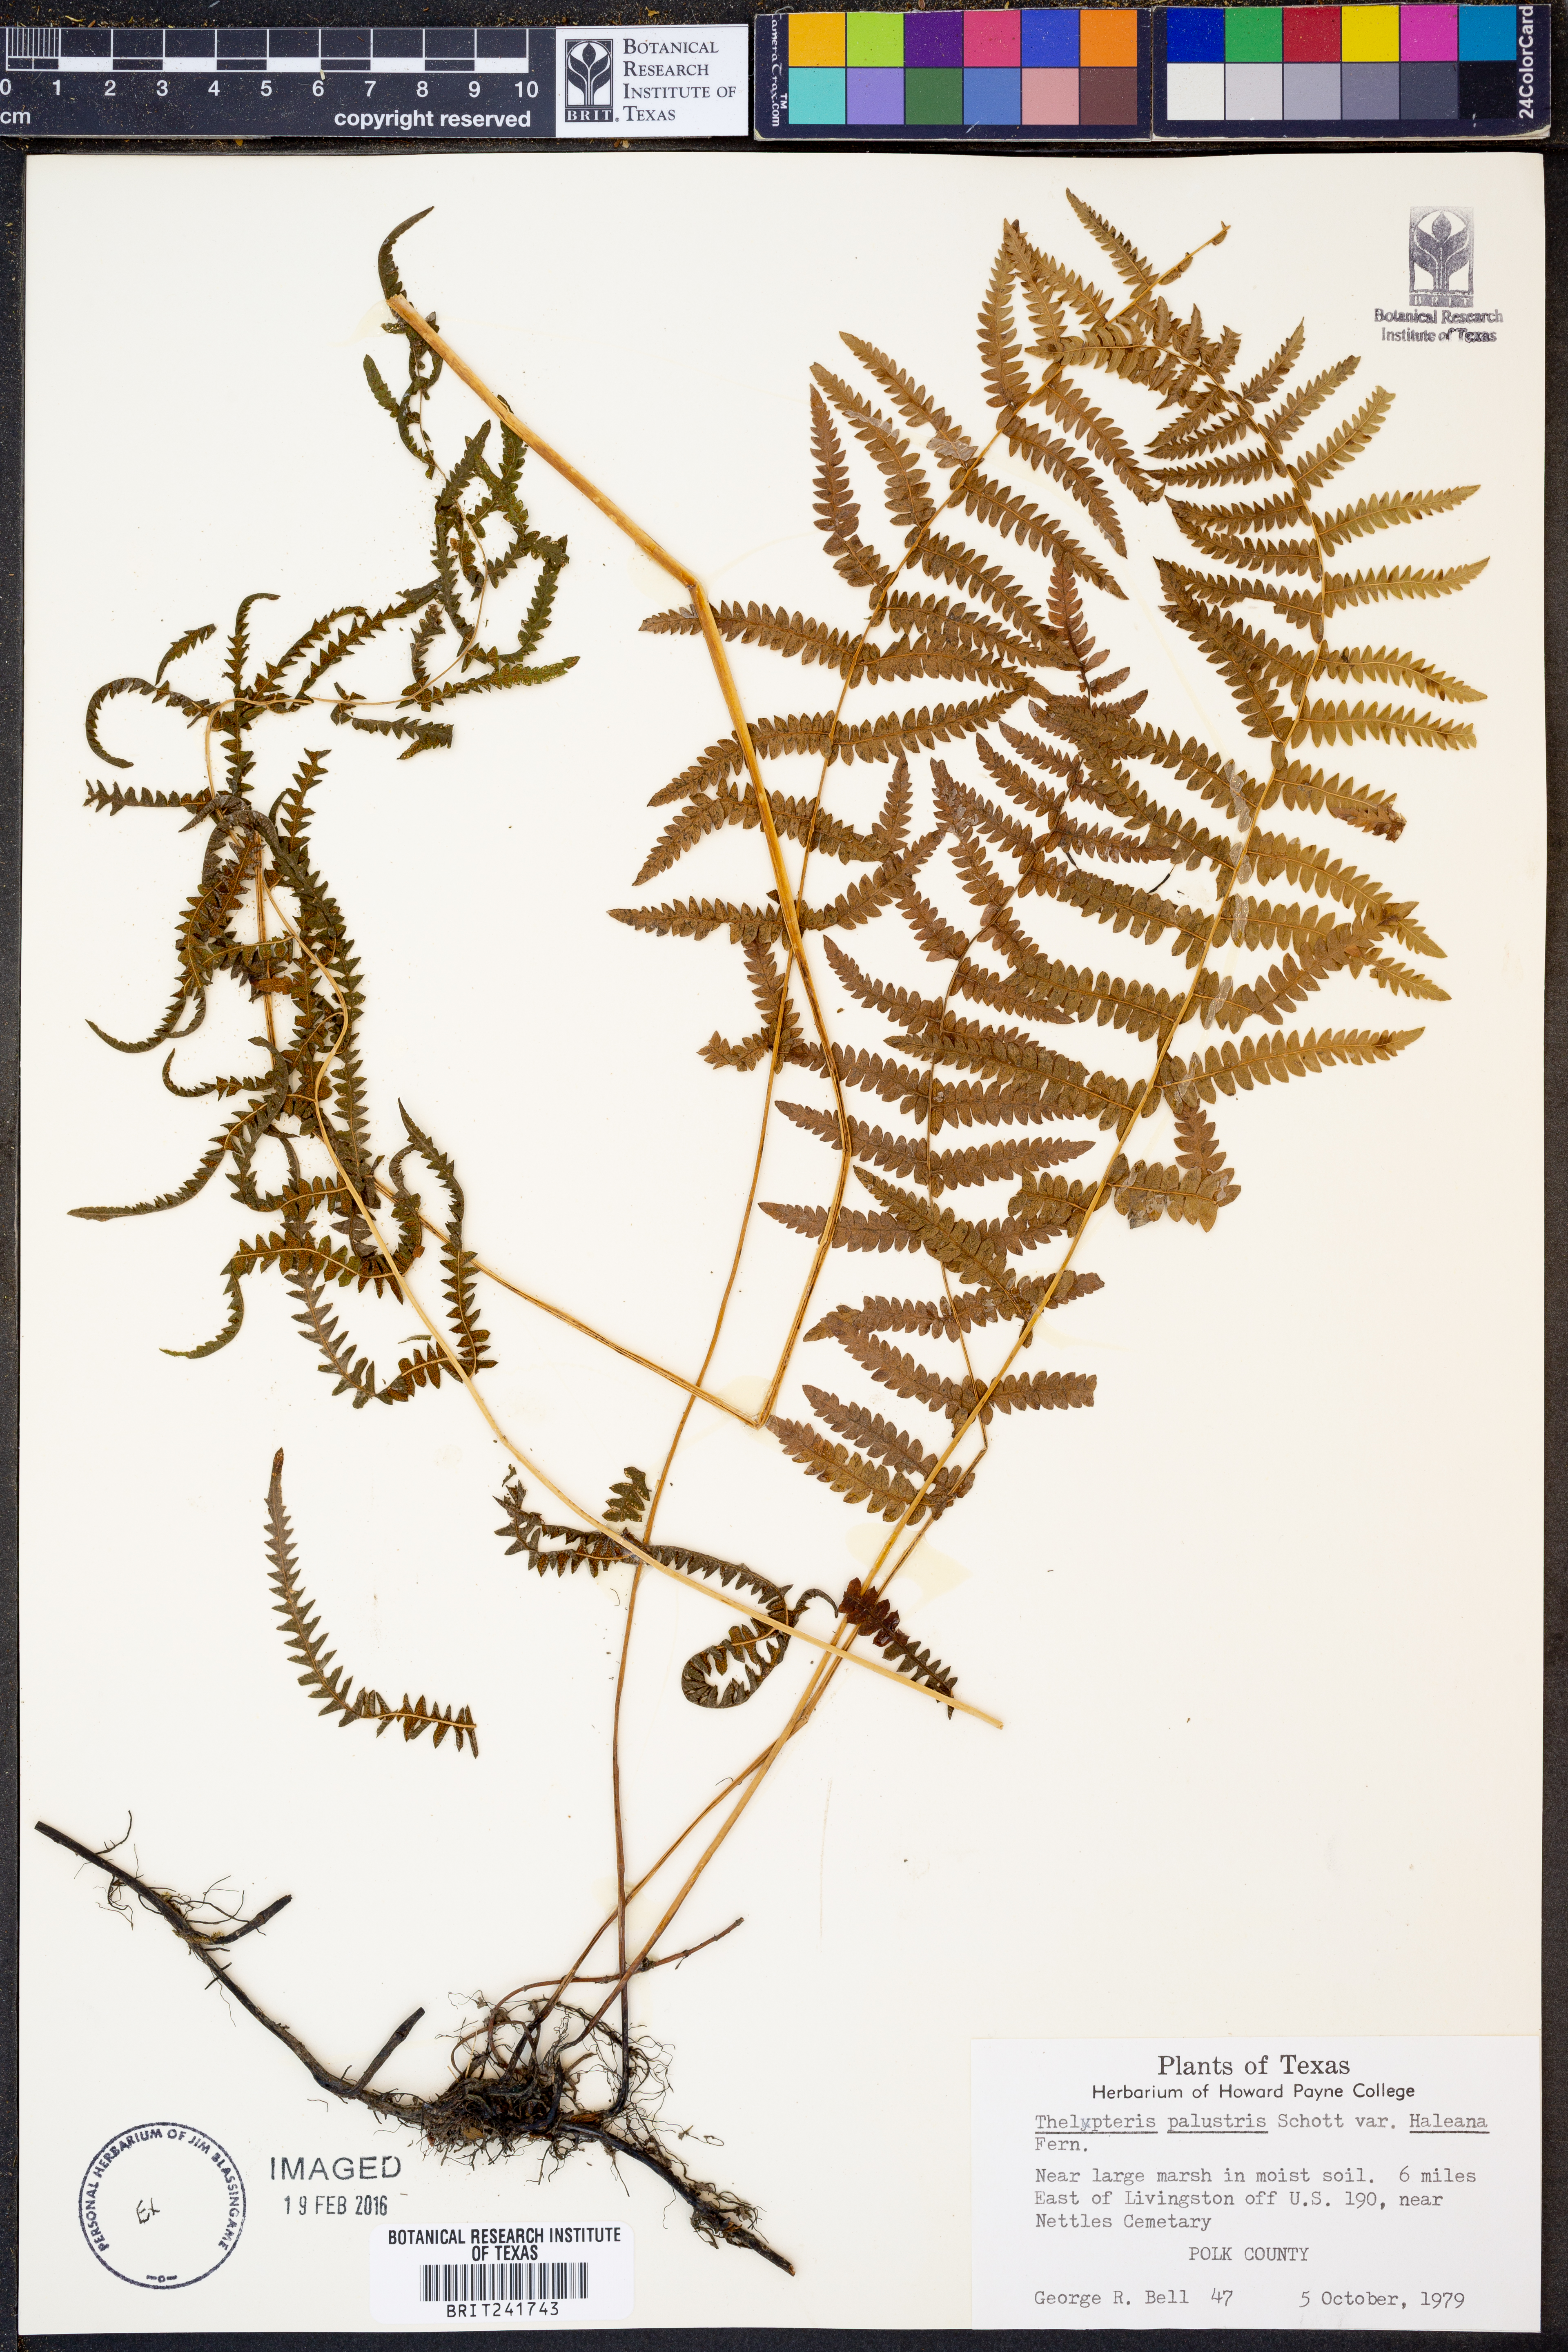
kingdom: Plantae
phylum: Tracheophyta
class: Polypodiopsida
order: Polypodiales
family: Thelypteridaceae
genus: Thelypteris
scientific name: Thelypteris palustris
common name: Marsh fern
